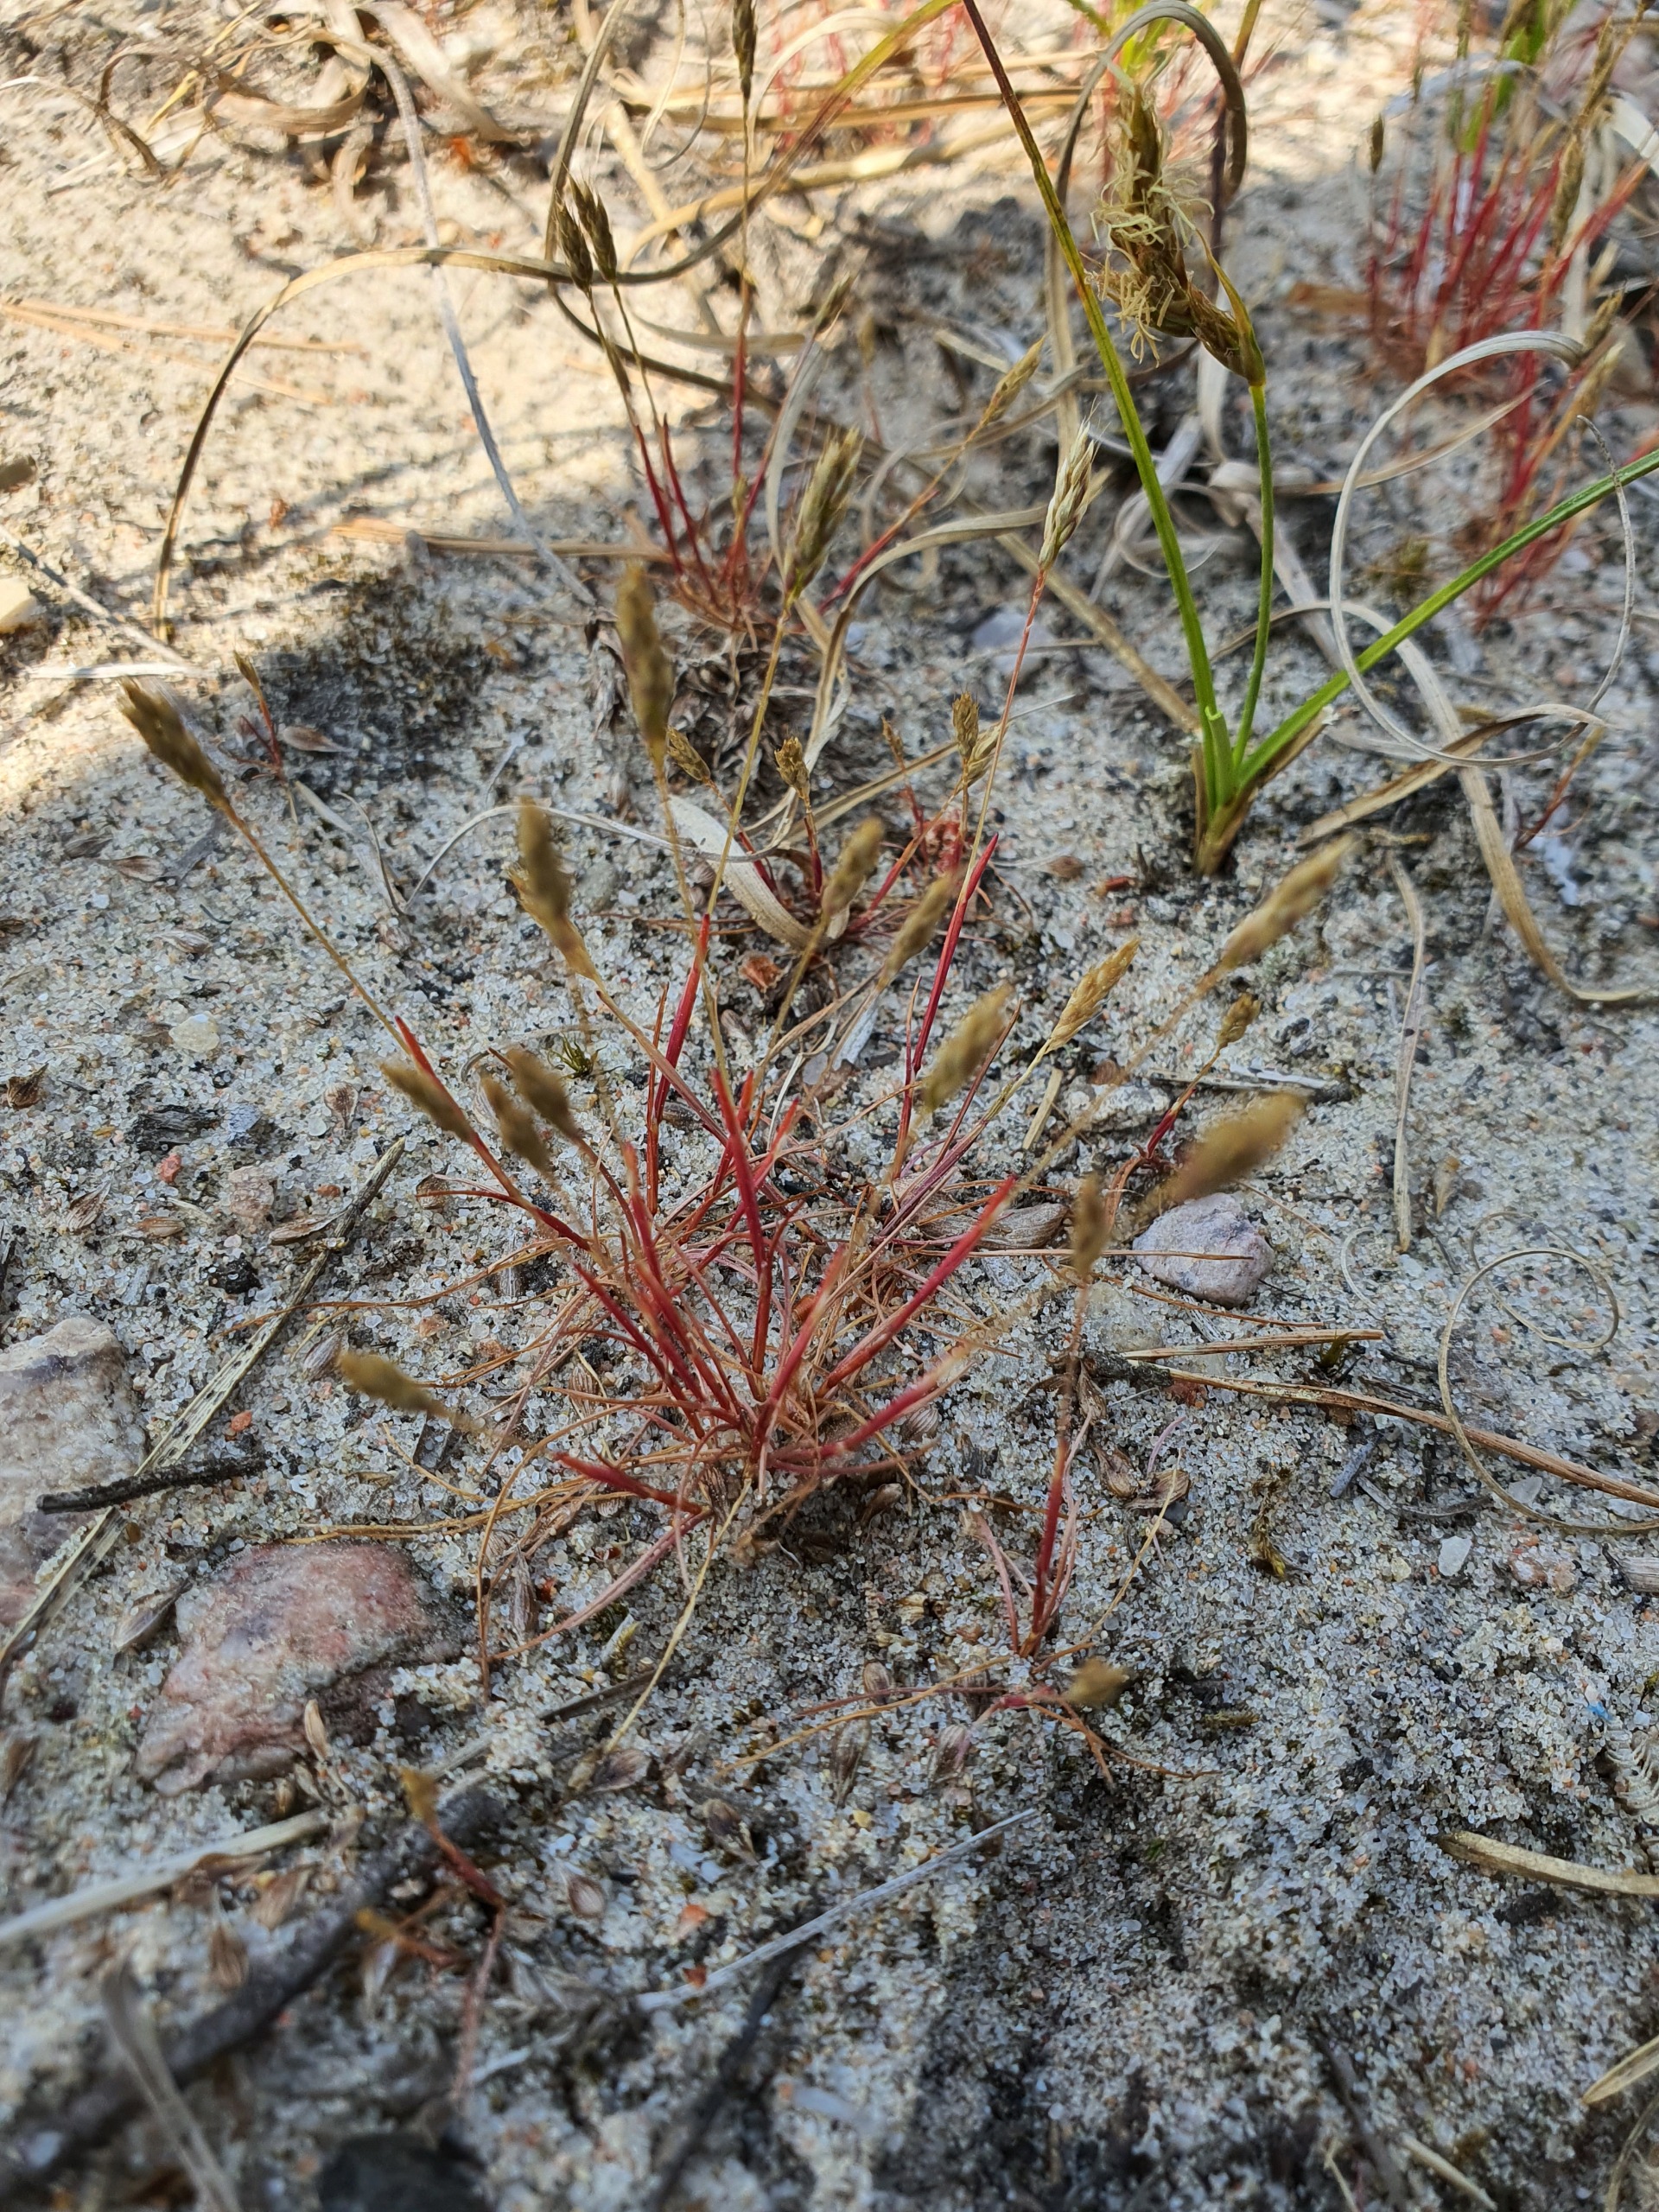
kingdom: Plantae
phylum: Tracheophyta
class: Liliopsida
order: Poales
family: Poaceae
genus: Aira
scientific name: Aira praecox
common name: Tidlig dværgbunke
